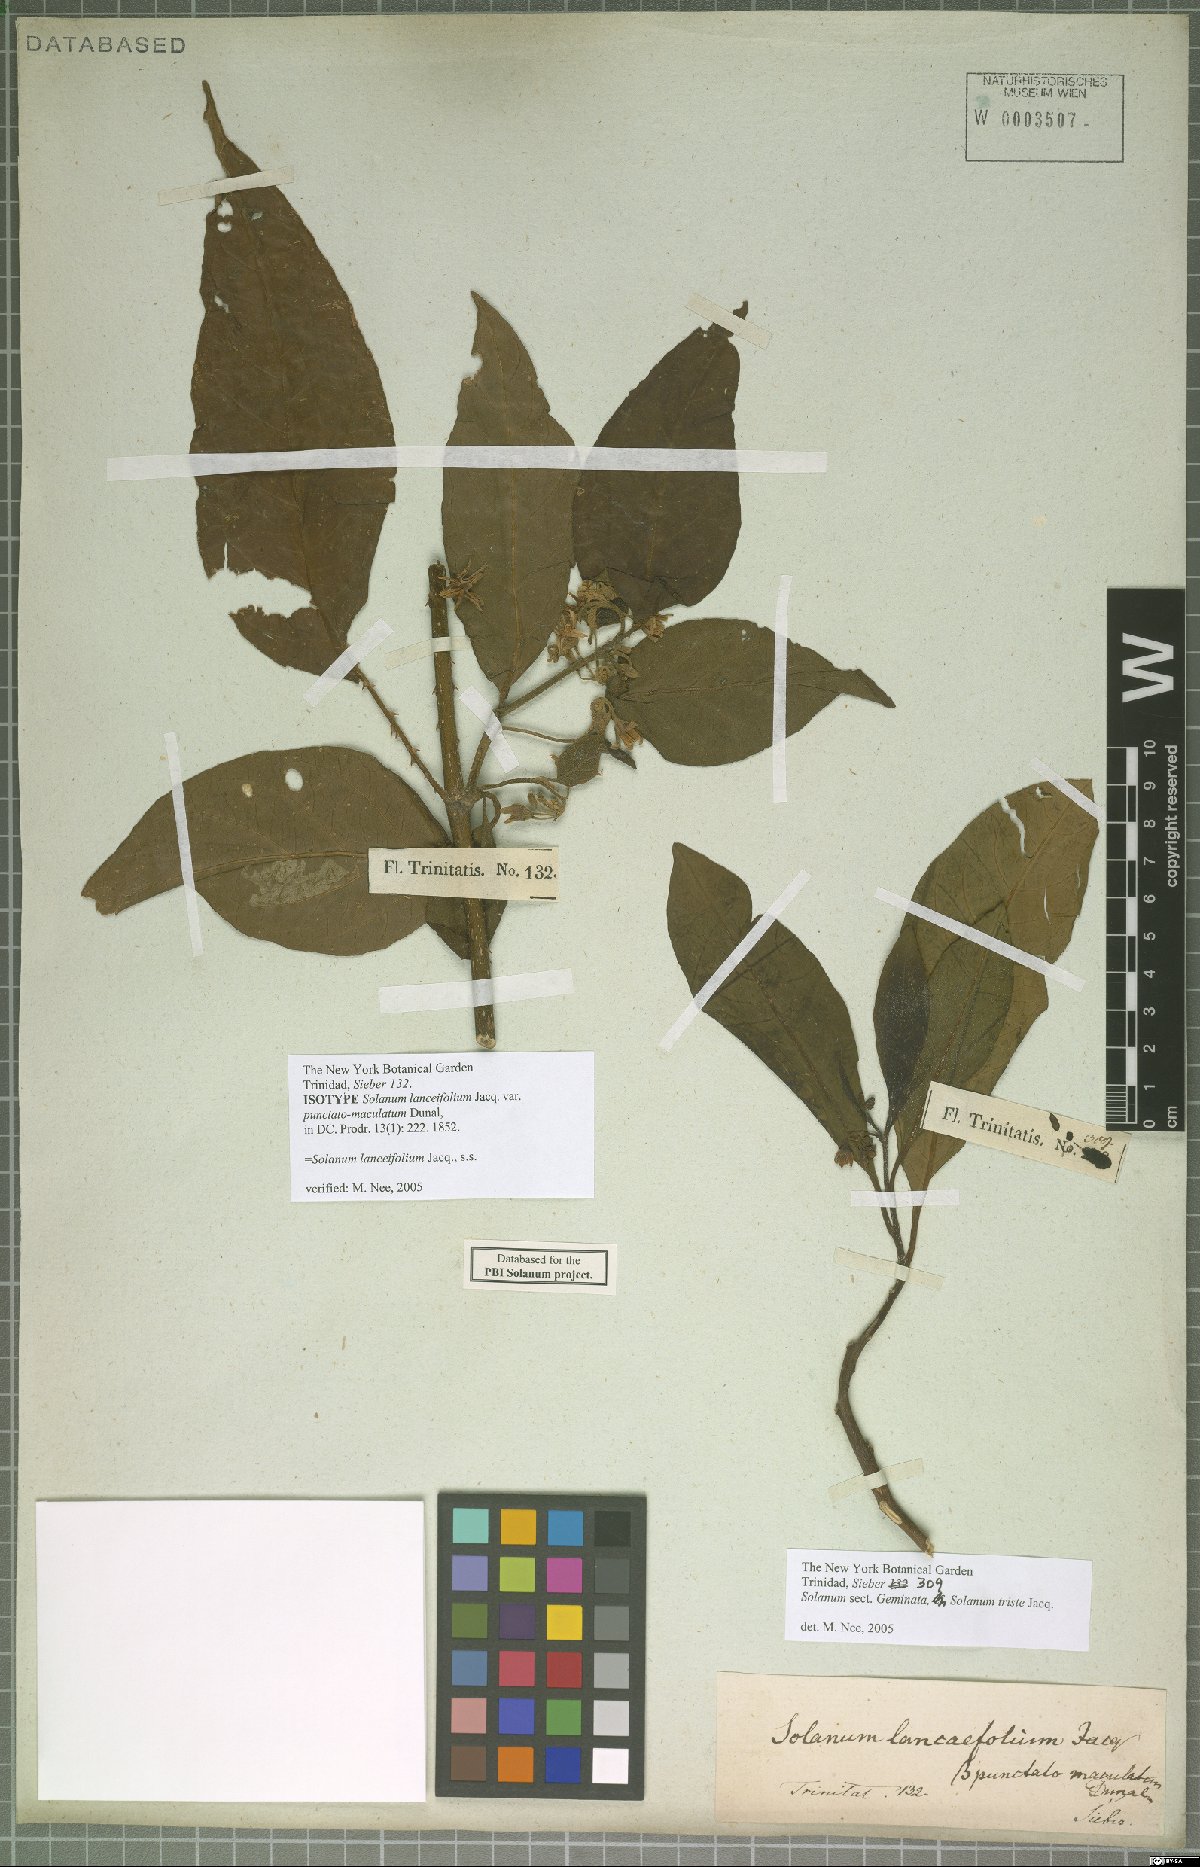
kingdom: Plantae
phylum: Tracheophyta
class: Magnoliopsida
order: Solanales
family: Solanaceae
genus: Solanum
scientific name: Solanum lanceifolium
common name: Lanceleaf nightshade
